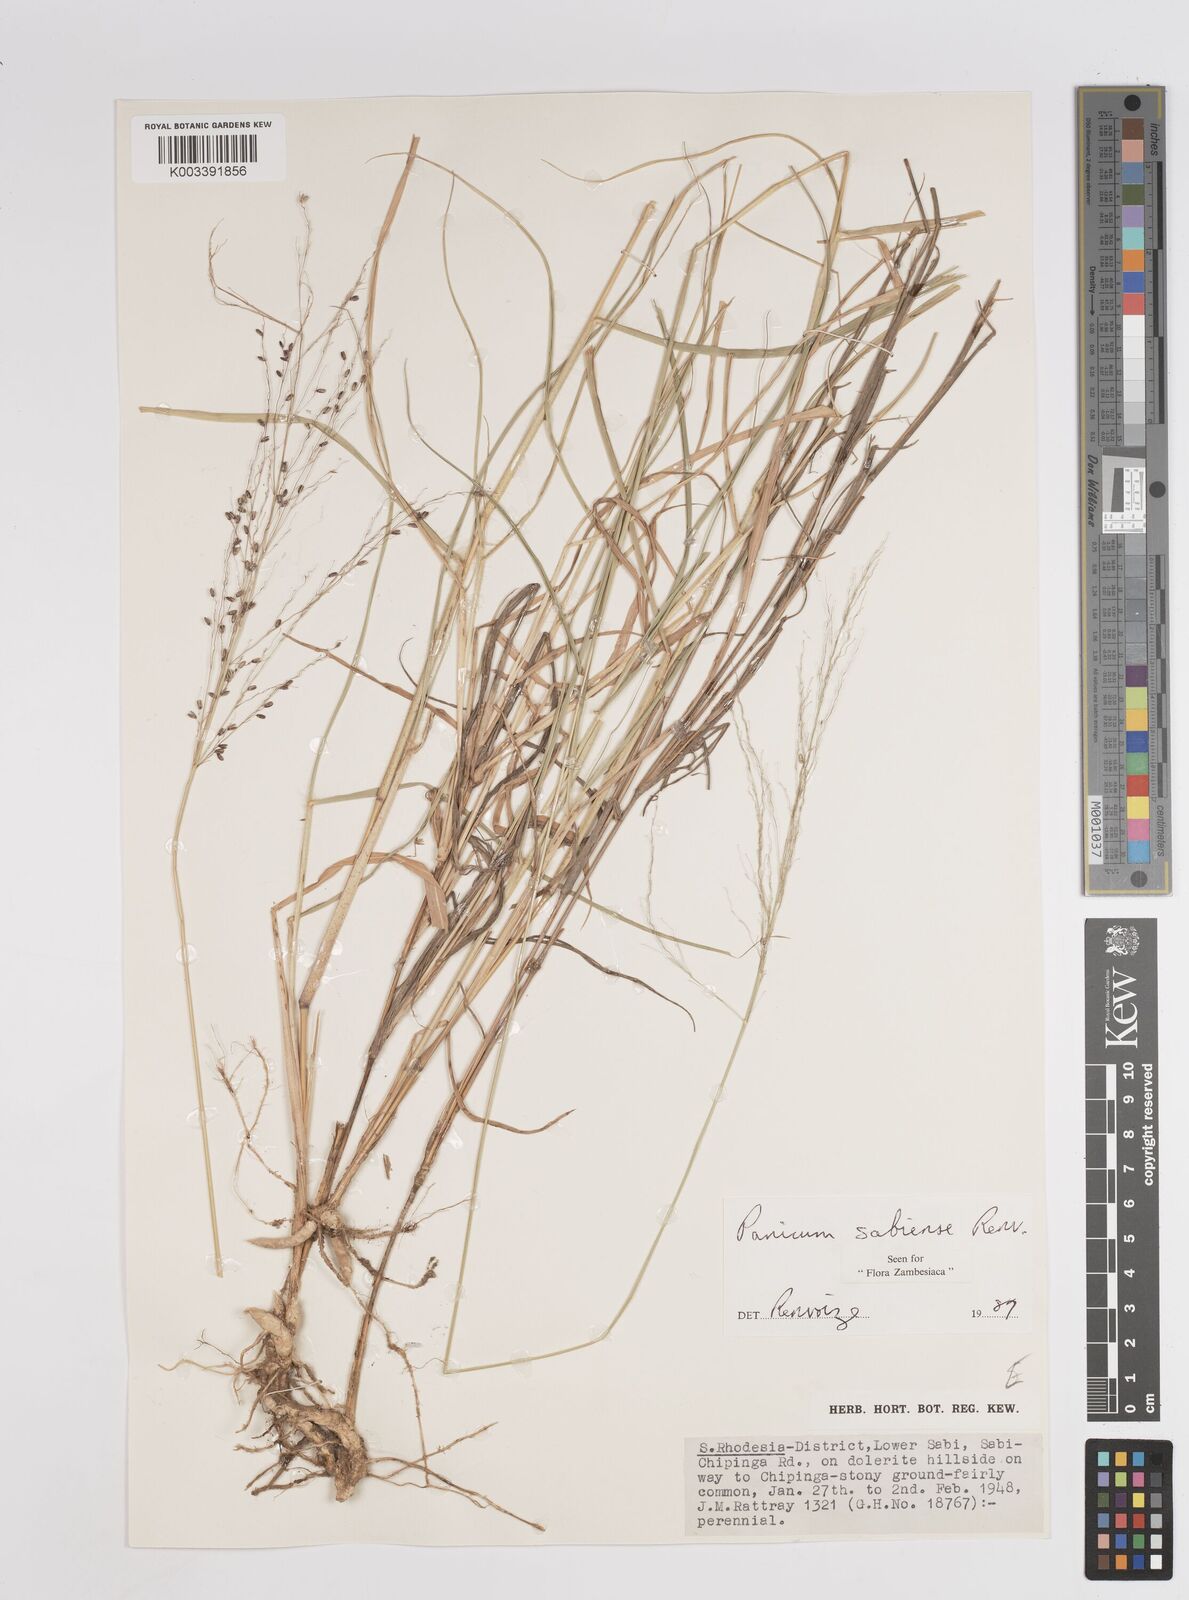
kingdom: Plantae
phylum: Tracheophyta
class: Liliopsida
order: Poales
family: Poaceae
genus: Panicum
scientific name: Panicum trichoides
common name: Tickle grass
